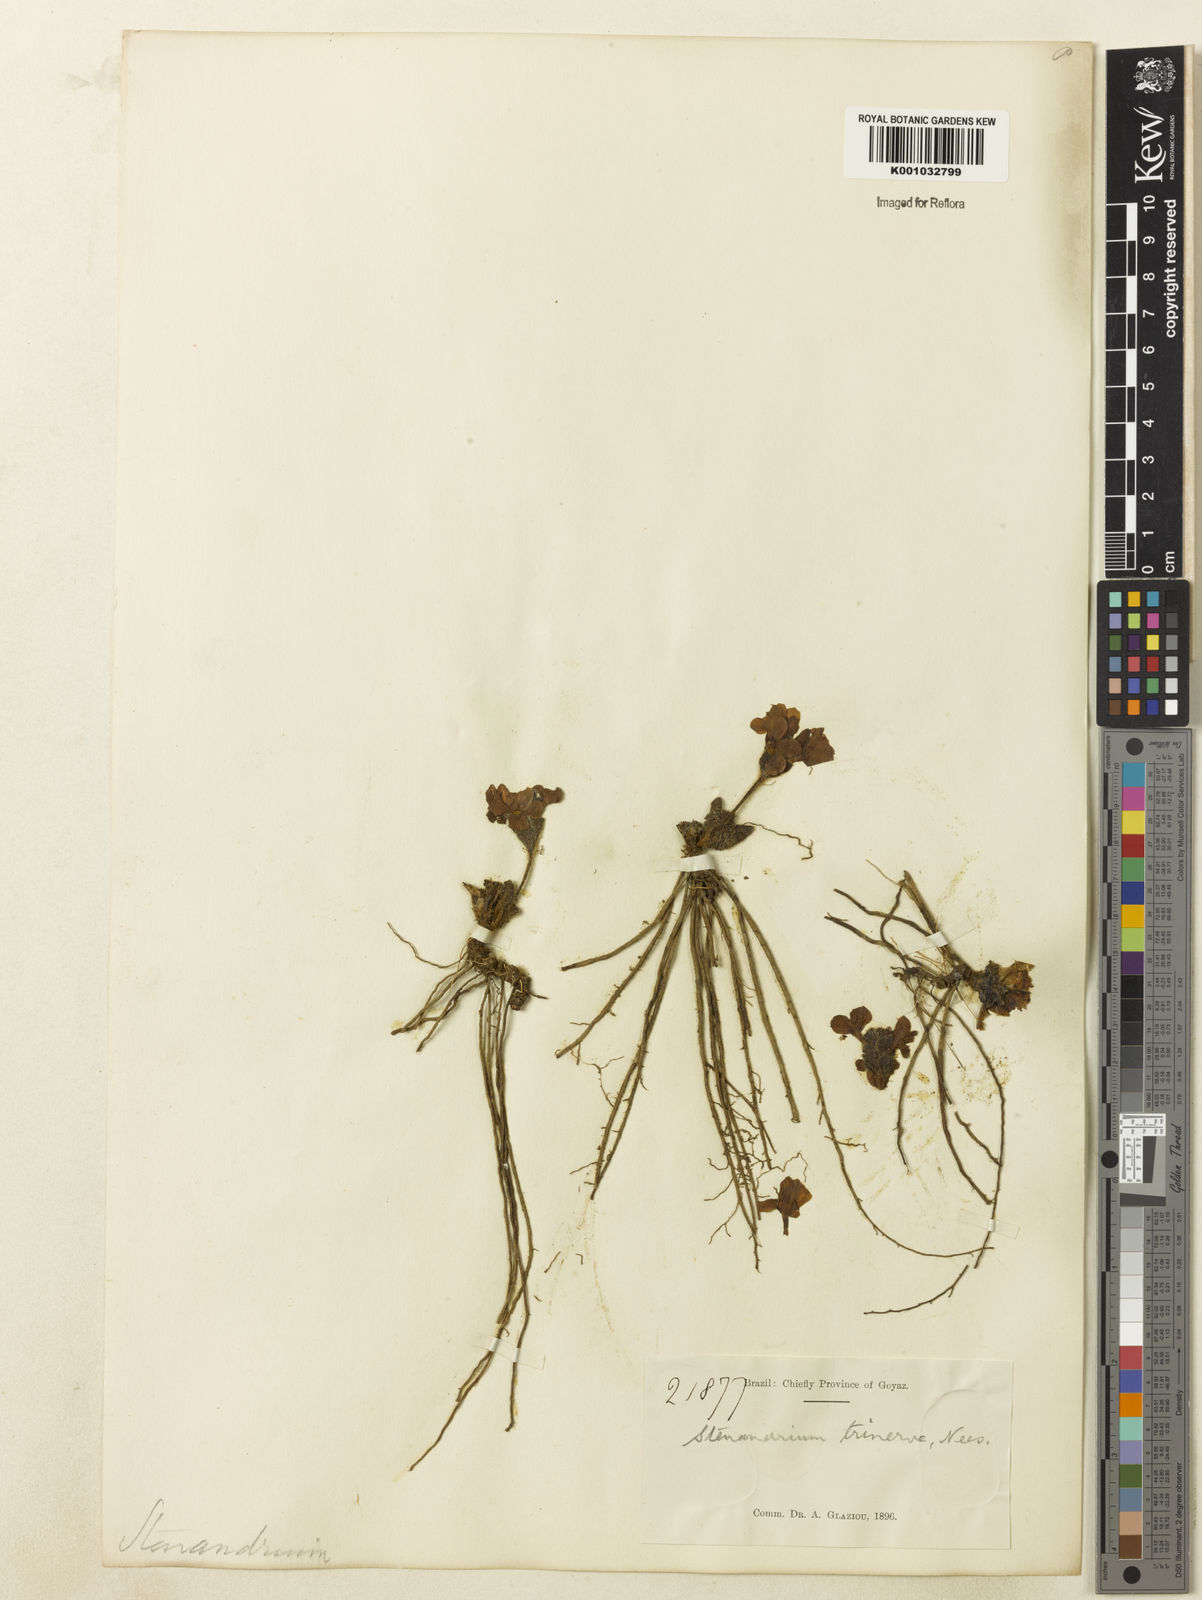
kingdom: Plantae
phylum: Tracheophyta
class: Magnoliopsida
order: Lamiales
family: Acanthaceae
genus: Stenandrium
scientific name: Stenandrium dulce
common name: Pinklet
